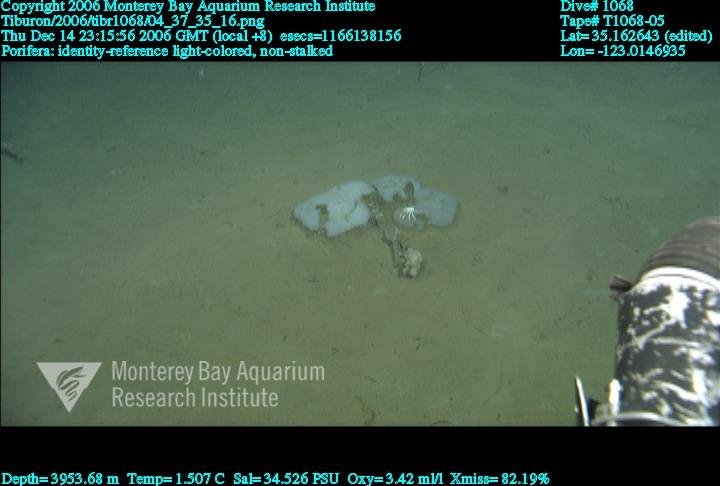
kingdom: Animalia
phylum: Porifera
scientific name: Porifera
